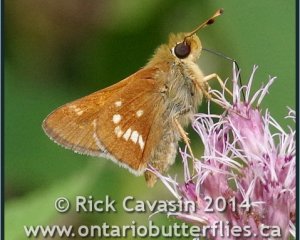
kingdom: Animalia
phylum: Arthropoda
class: Insecta
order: Lepidoptera
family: Hesperiidae
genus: Hesperia
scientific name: Hesperia leonardus
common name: Leonard's Skipper
